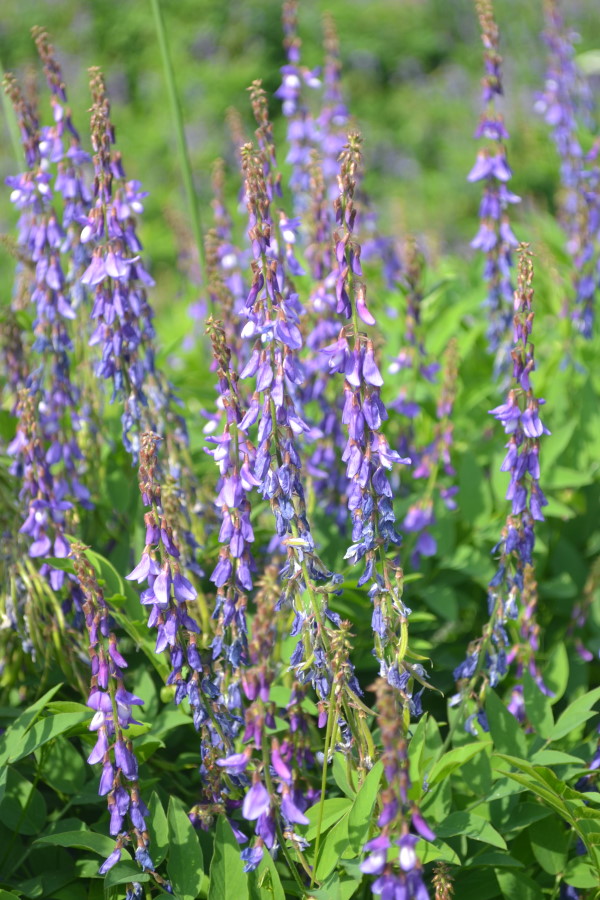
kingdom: Plantae
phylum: Tracheophyta
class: Magnoliopsida
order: Fabales
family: Fabaceae
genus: Galega
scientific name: Galega orientalis
